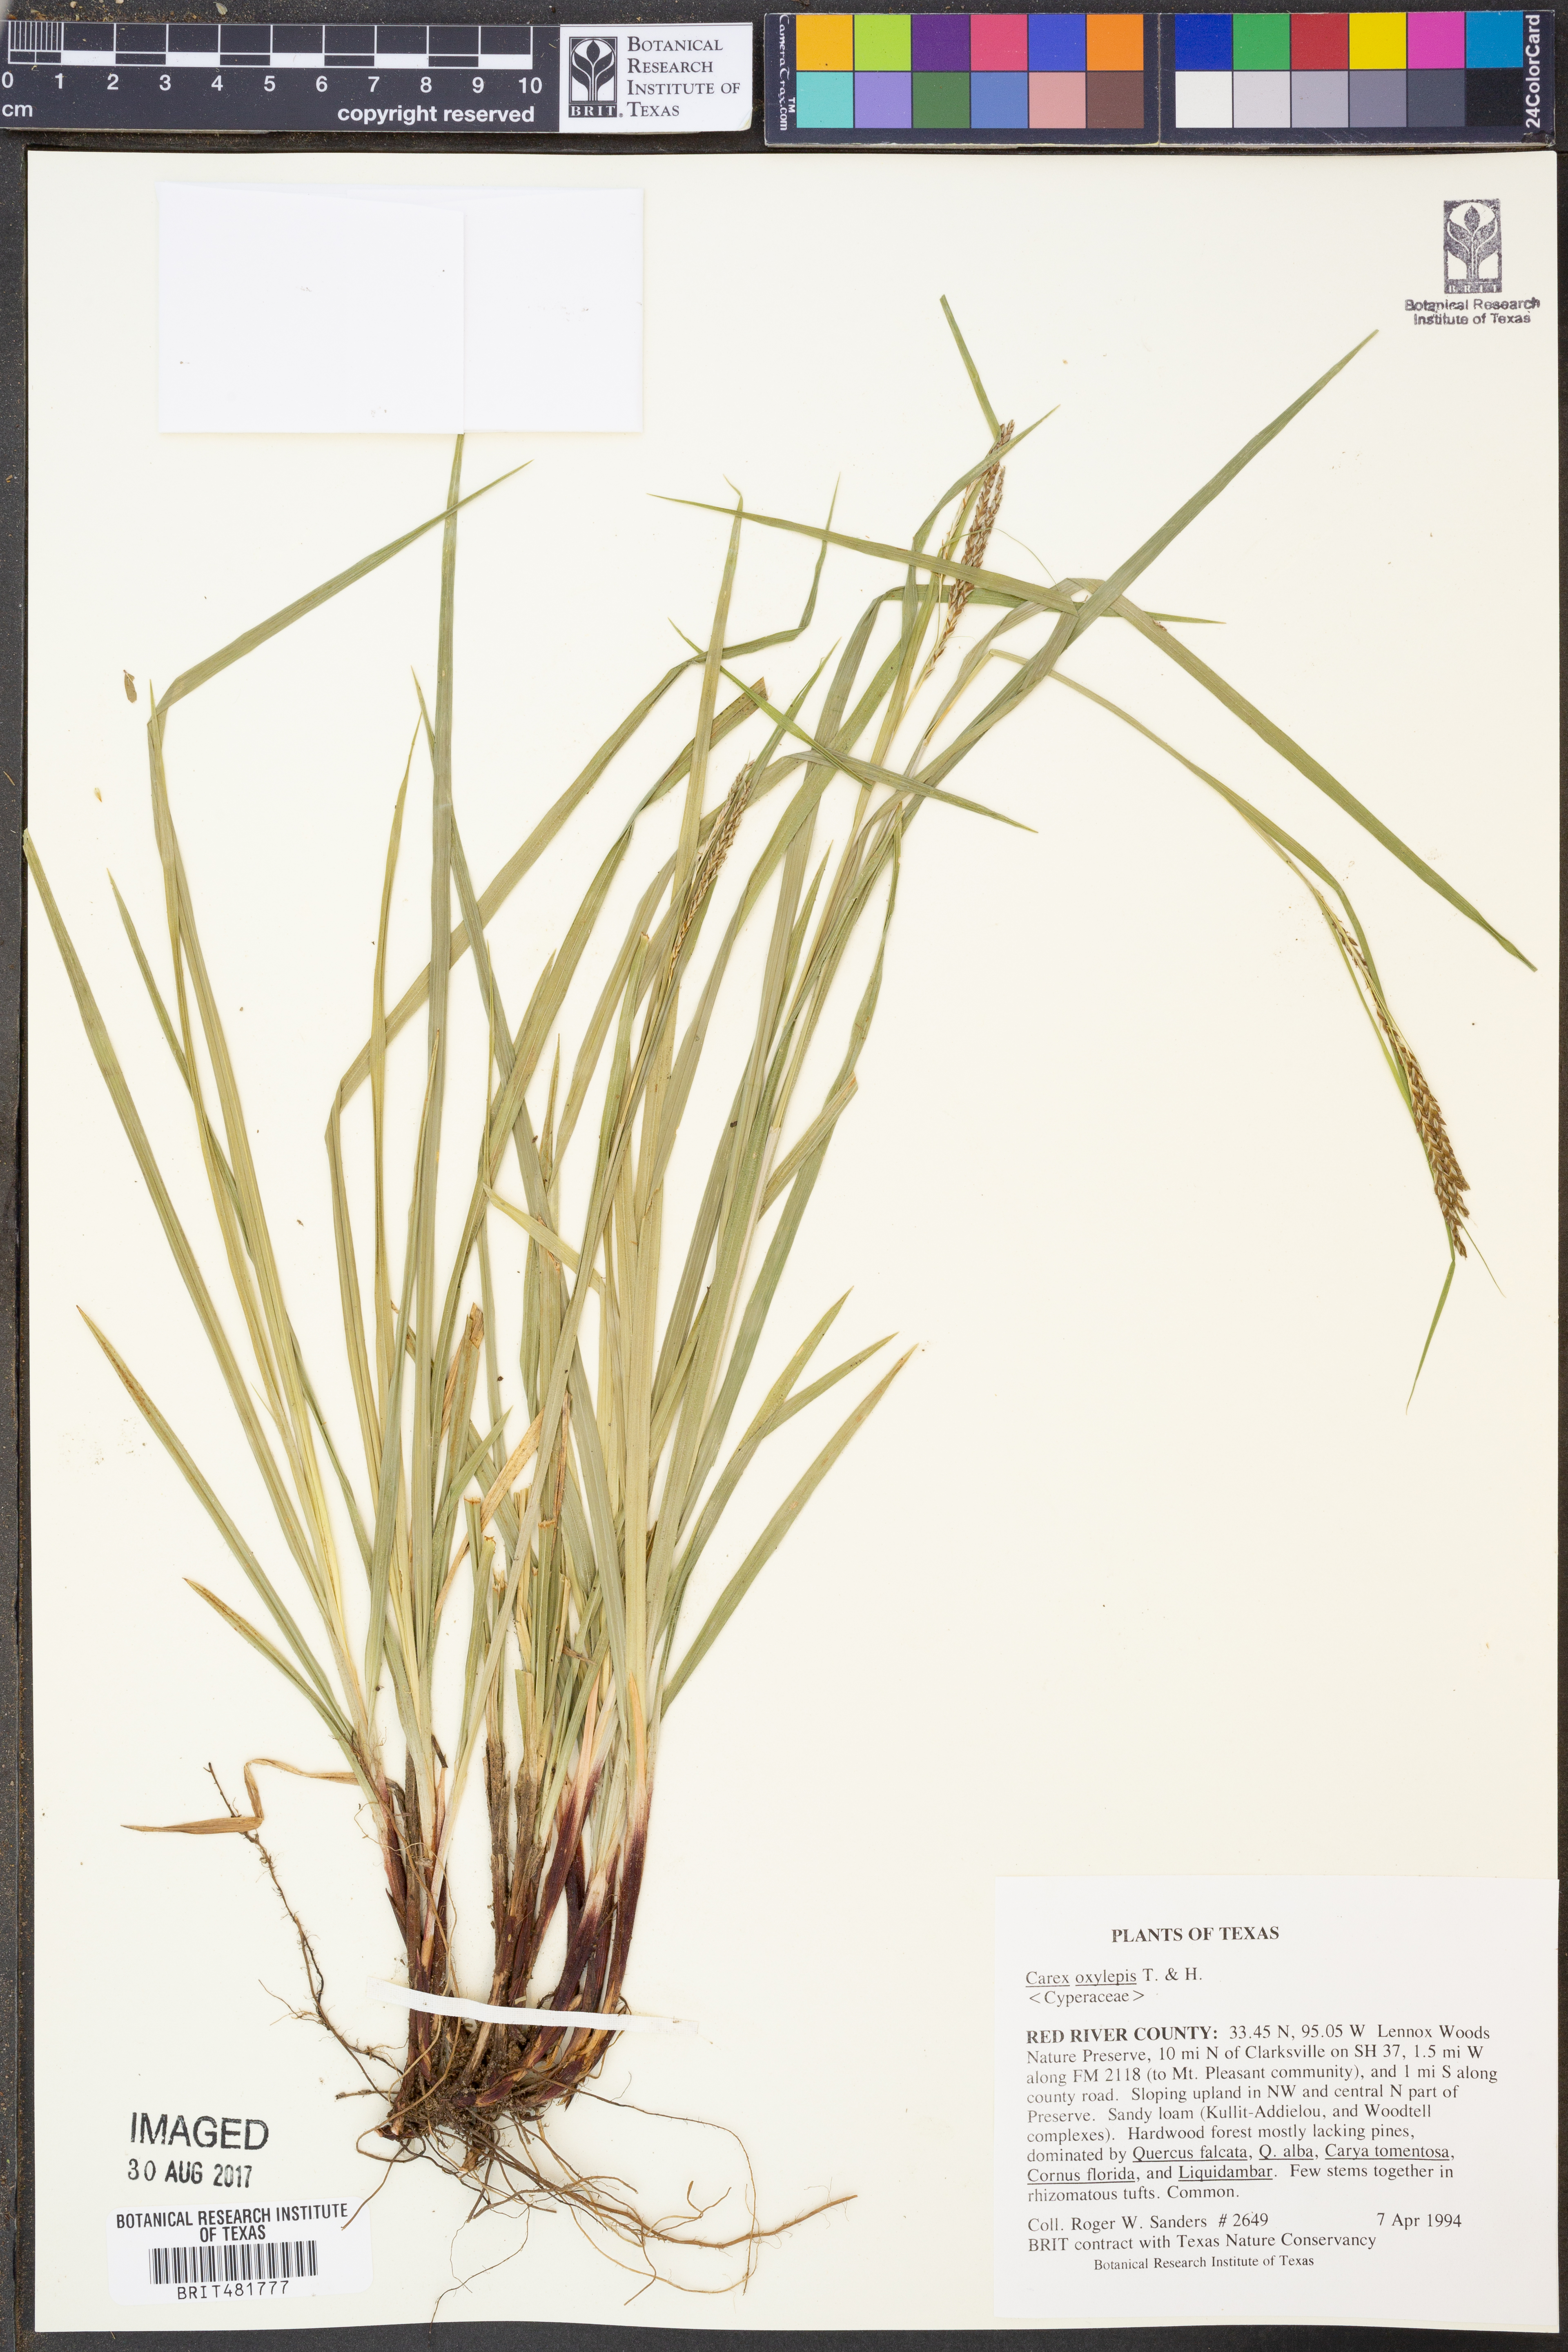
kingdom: Plantae
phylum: Tracheophyta
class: Liliopsida
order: Poales
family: Cyperaceae
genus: Carex
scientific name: Carex oxylepis
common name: Sharpscale sedge
